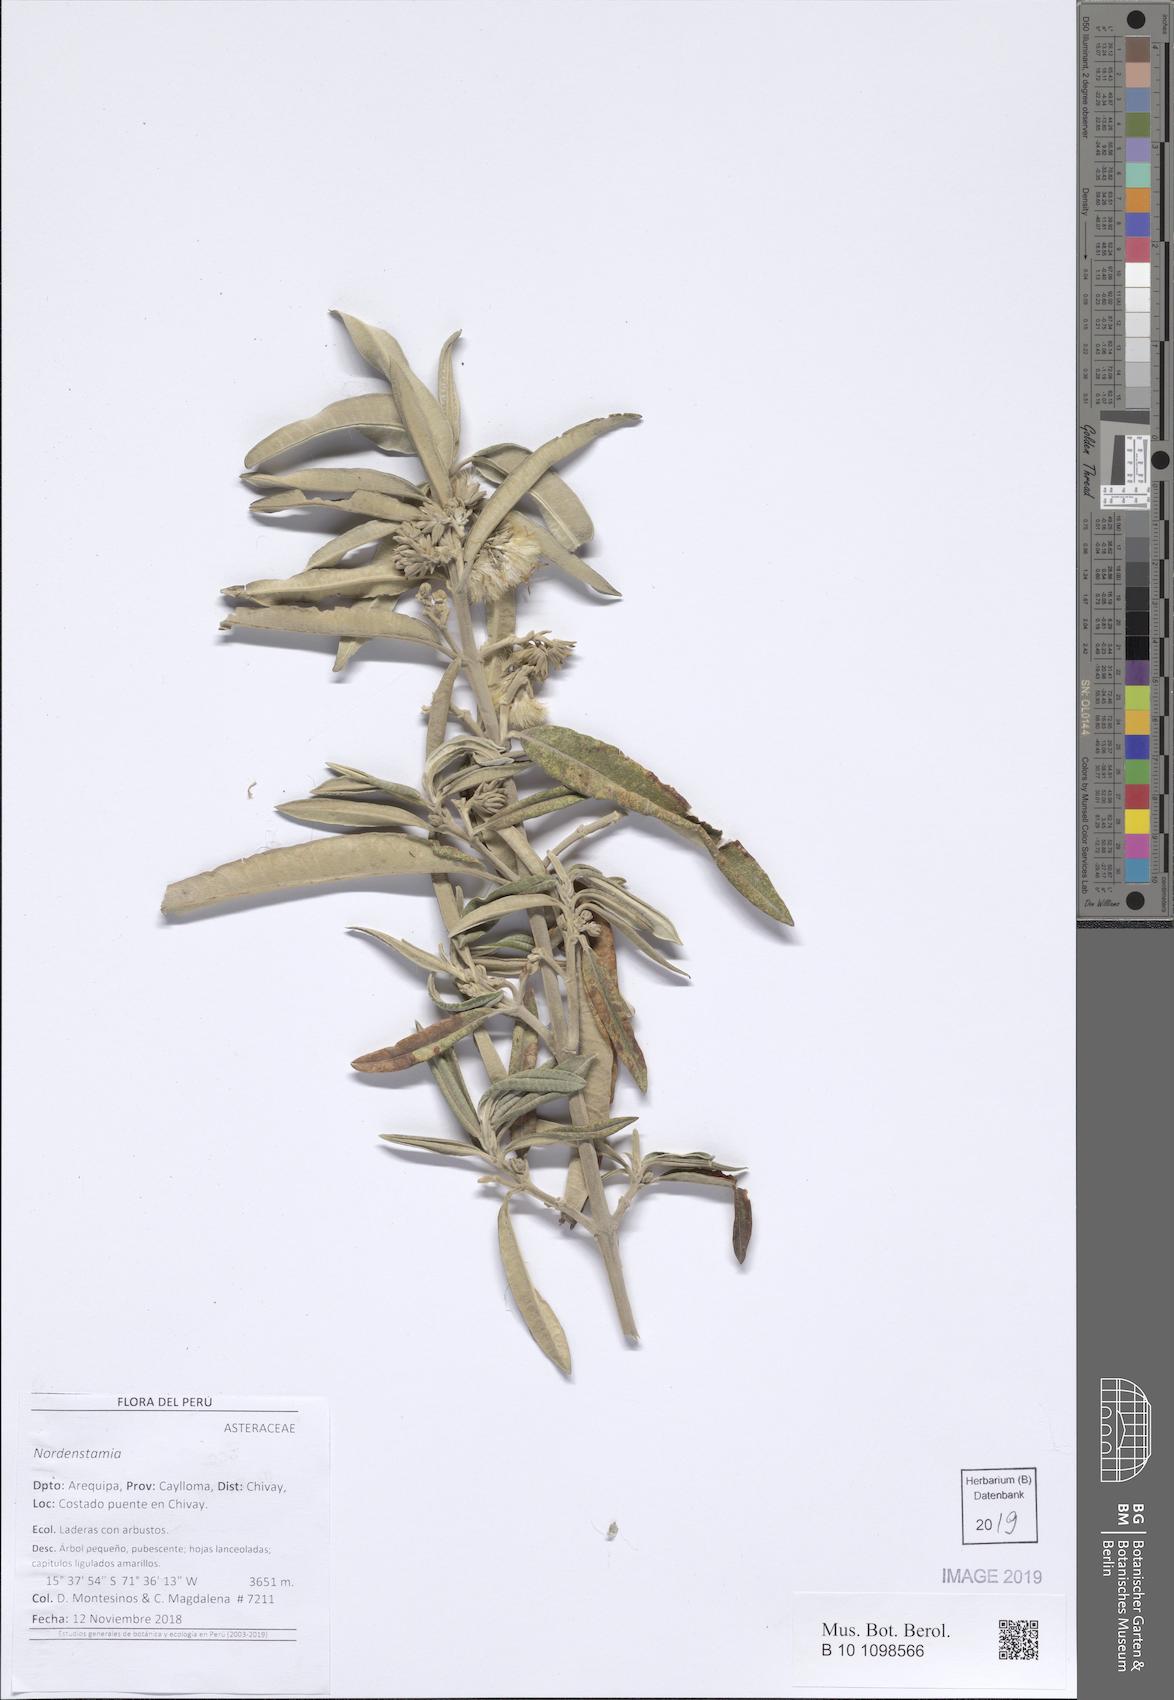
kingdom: Plantae
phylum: Tracheophyta
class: Magnoliopsida
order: Asterales
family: Asteraceae
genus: Nordenstamia
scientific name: Nordenstamia
